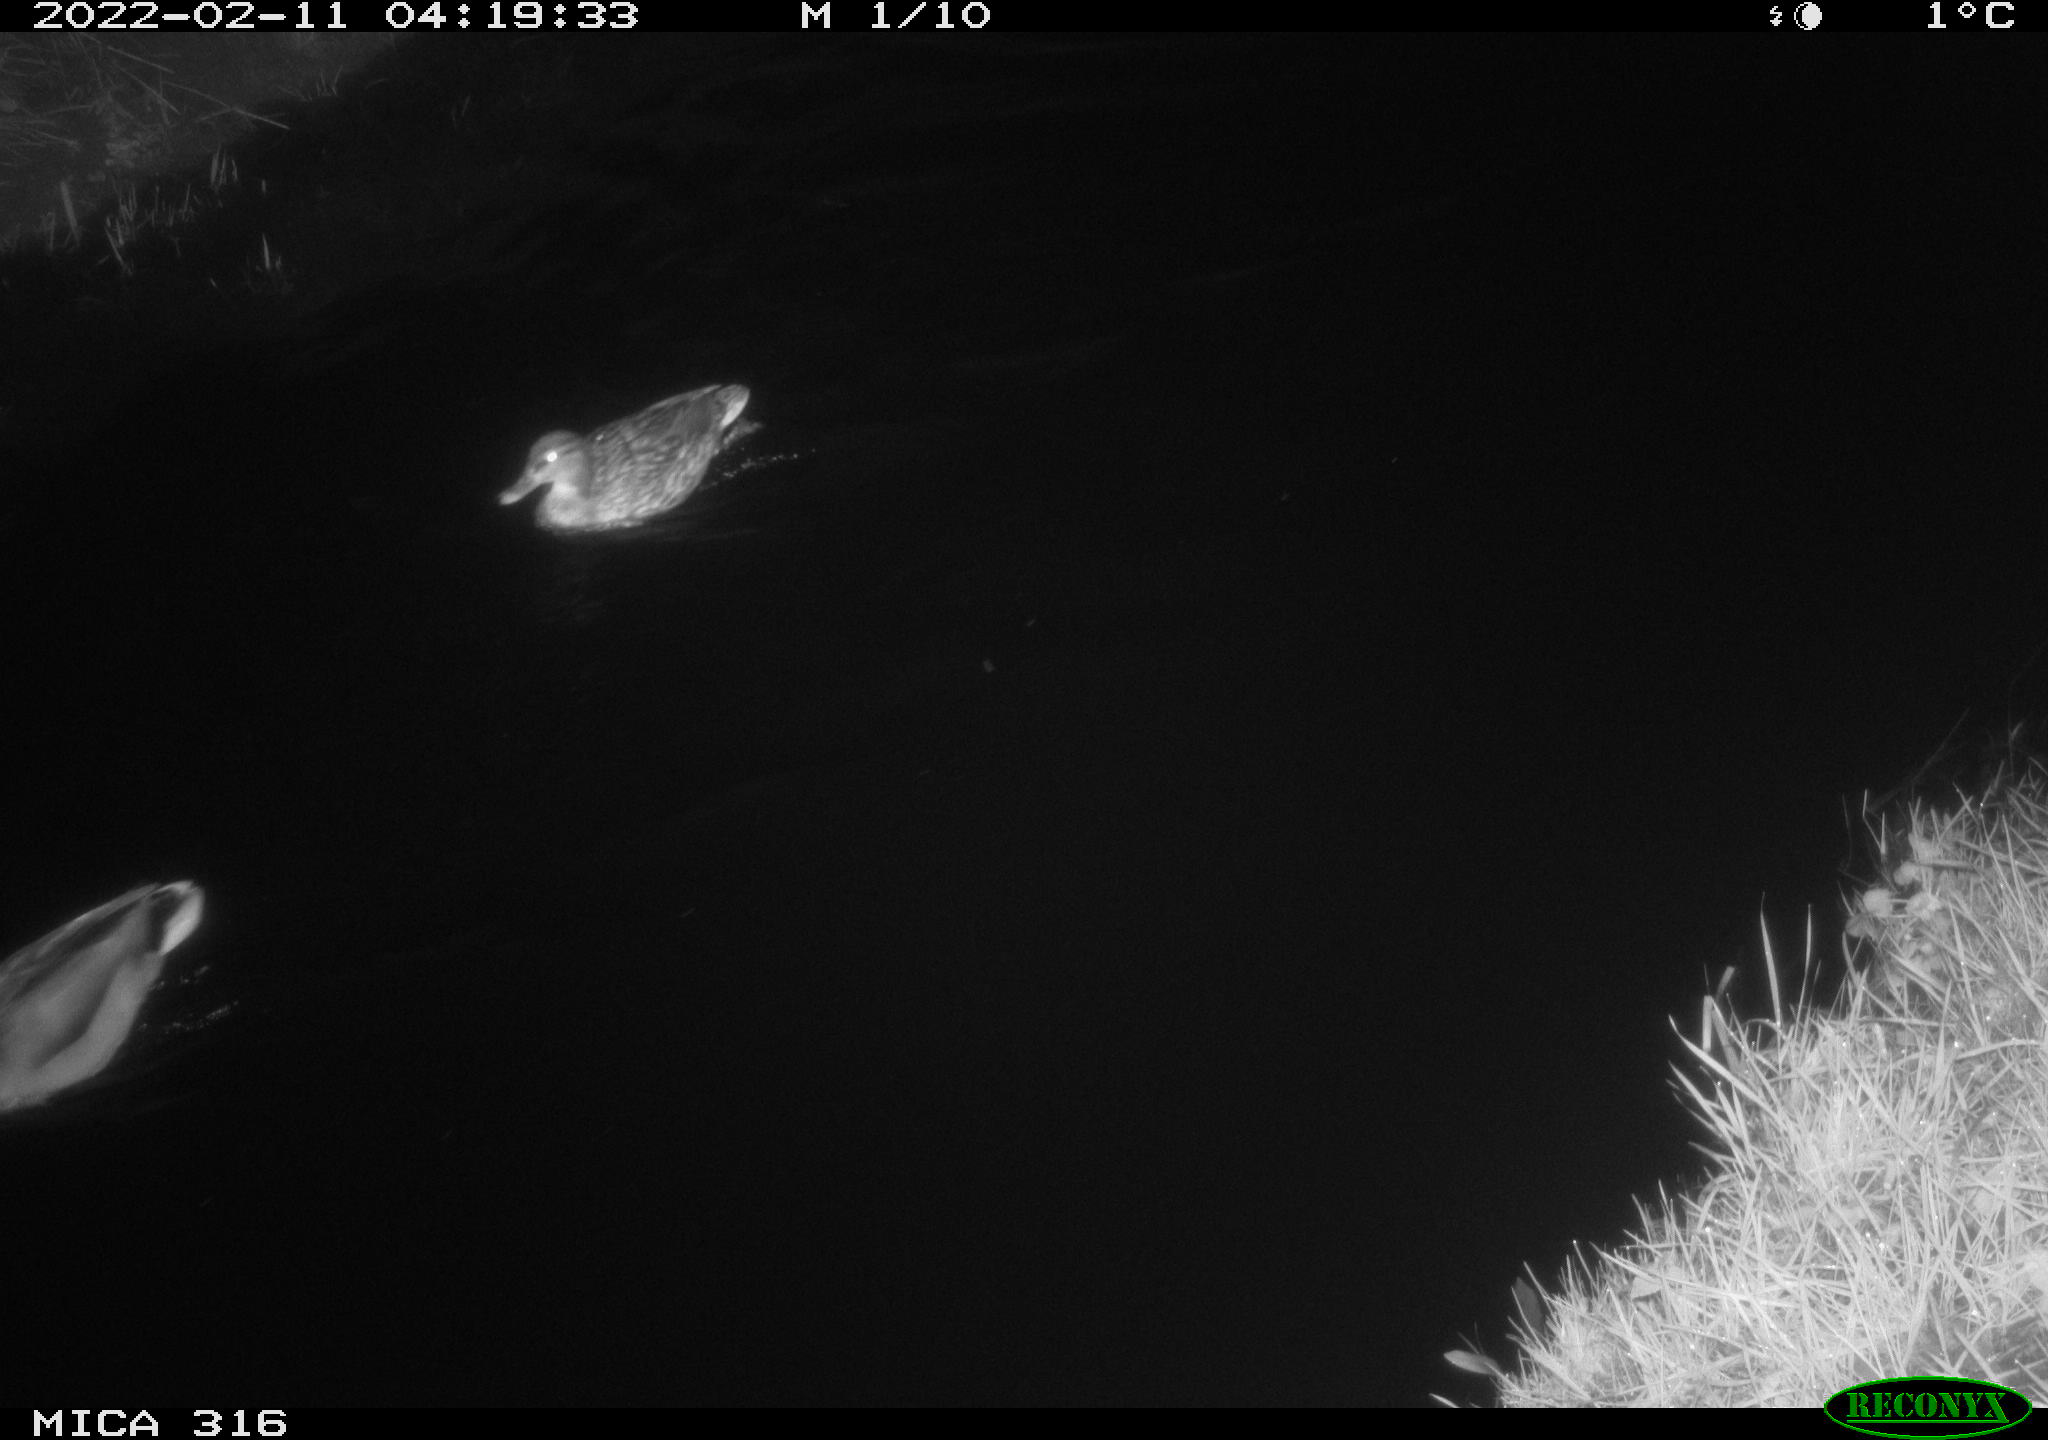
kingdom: Animalia
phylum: Chordata
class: Aves
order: Anseriformes
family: Anatidae
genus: Anas
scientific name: Anas platyrhynchos
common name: Mallard
